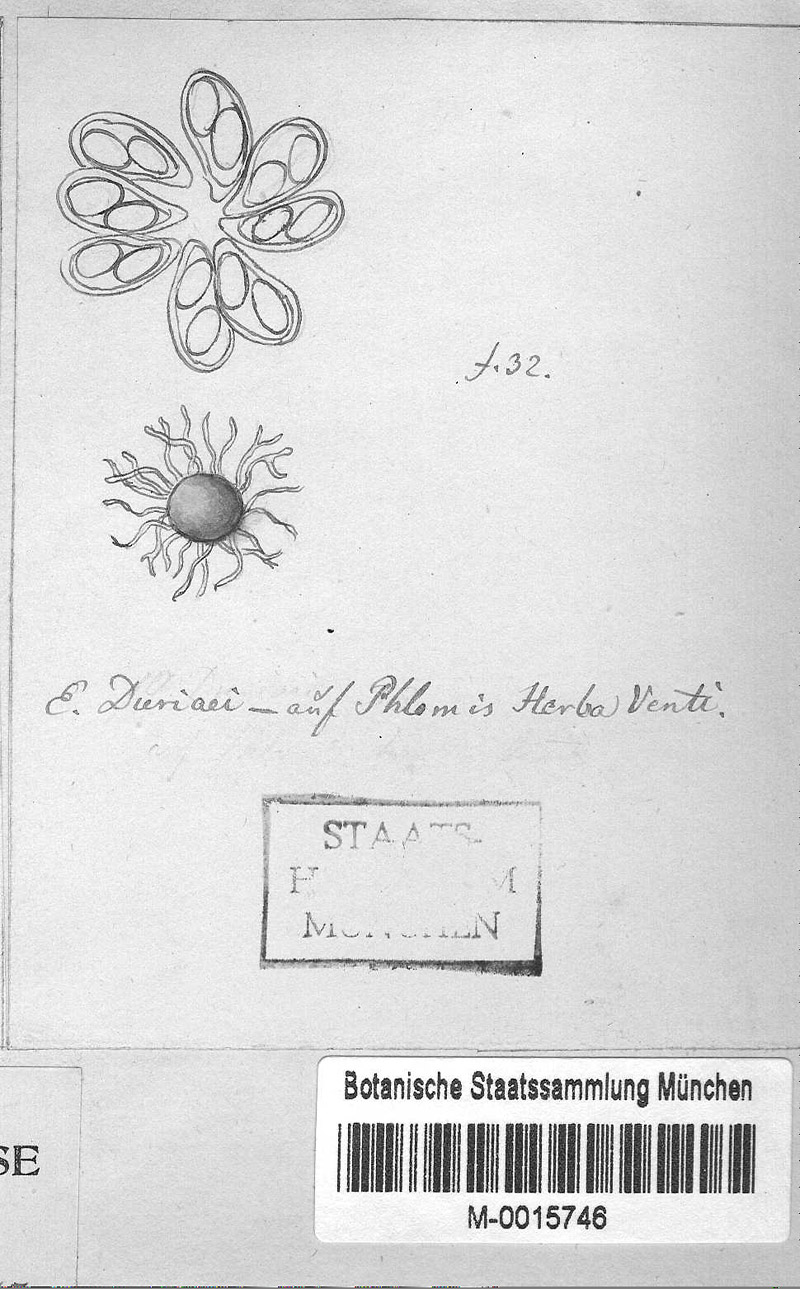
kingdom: Fungi
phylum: Ascomycota
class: Leotiomycetes
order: Helotiales
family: Erysiphaceae
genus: Leveillula
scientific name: Leveillula taurica
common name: Mediterranean poinsettia powdery mildew
